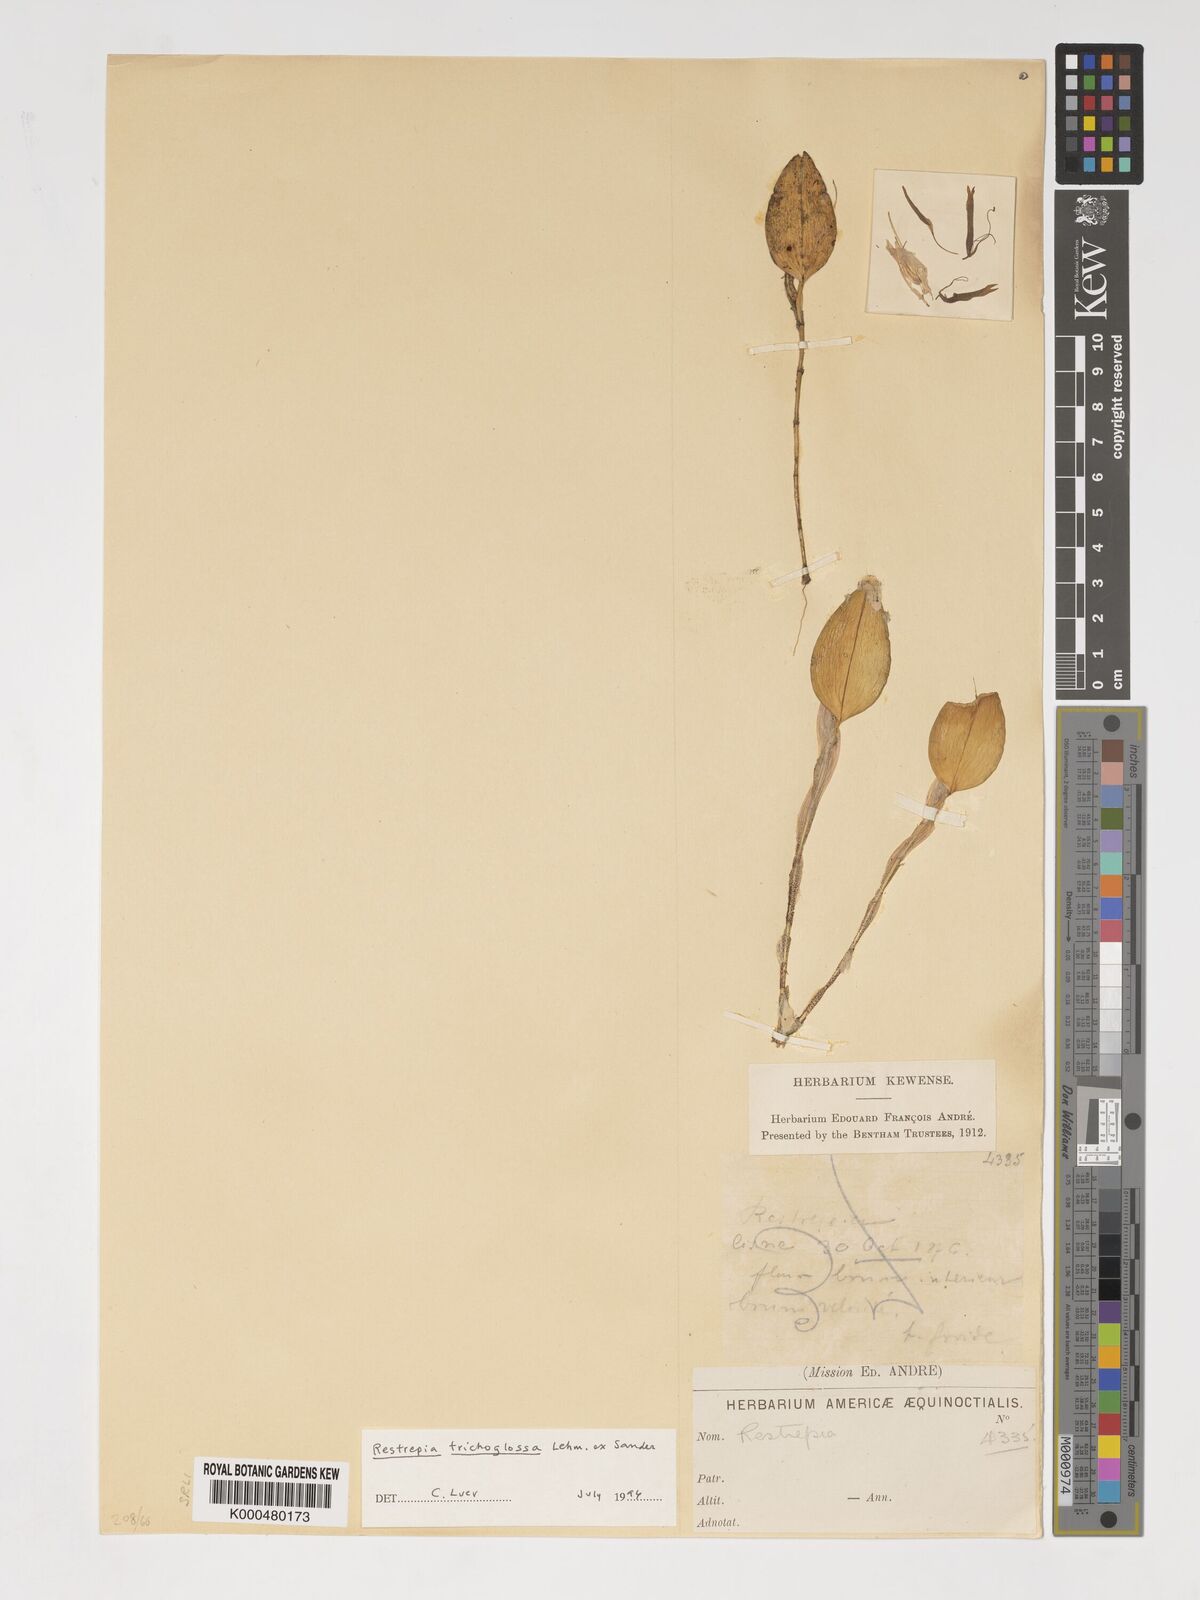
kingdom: Plantae
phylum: Tracheophyta
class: Liliopsida
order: Asparagales
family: Orchidaceae
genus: Pterostylis
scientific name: Pterostylis
